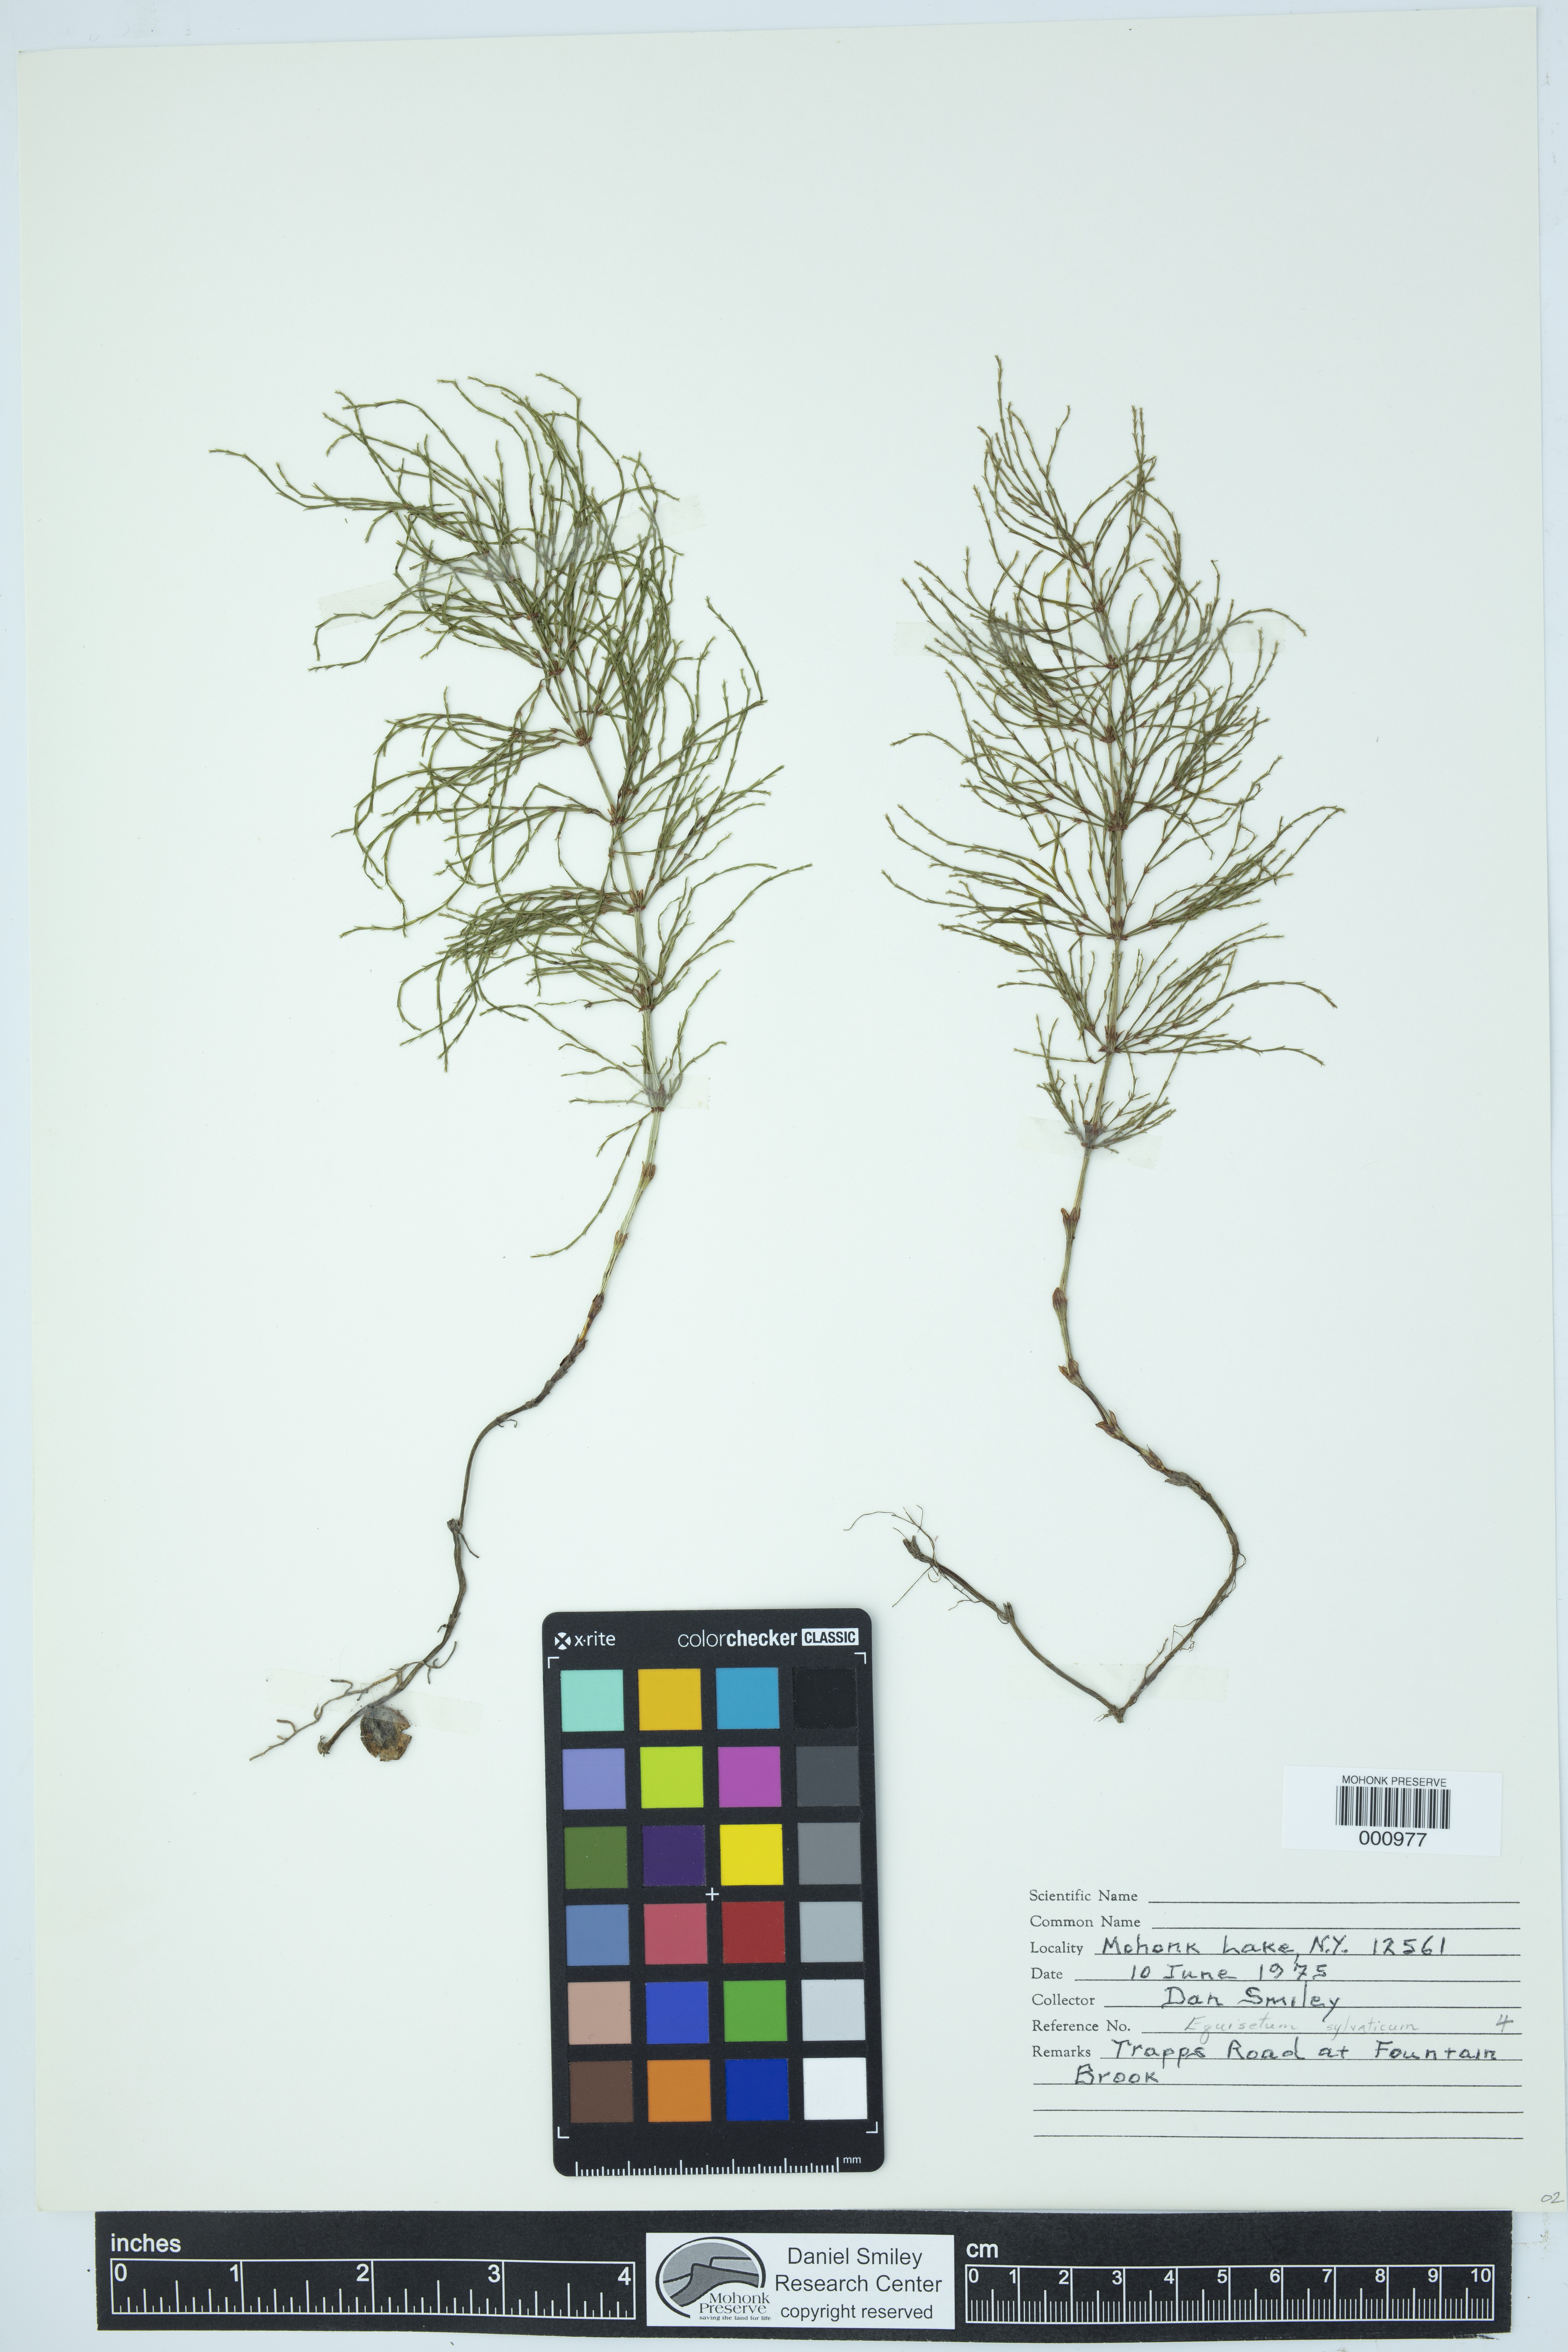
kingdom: Plantae
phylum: Tracheophyta
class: Polypodiopsida
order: Equisetales
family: Equisetaceae
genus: Equisetum
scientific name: Equisetum sylvaticum
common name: Wood horsetail
